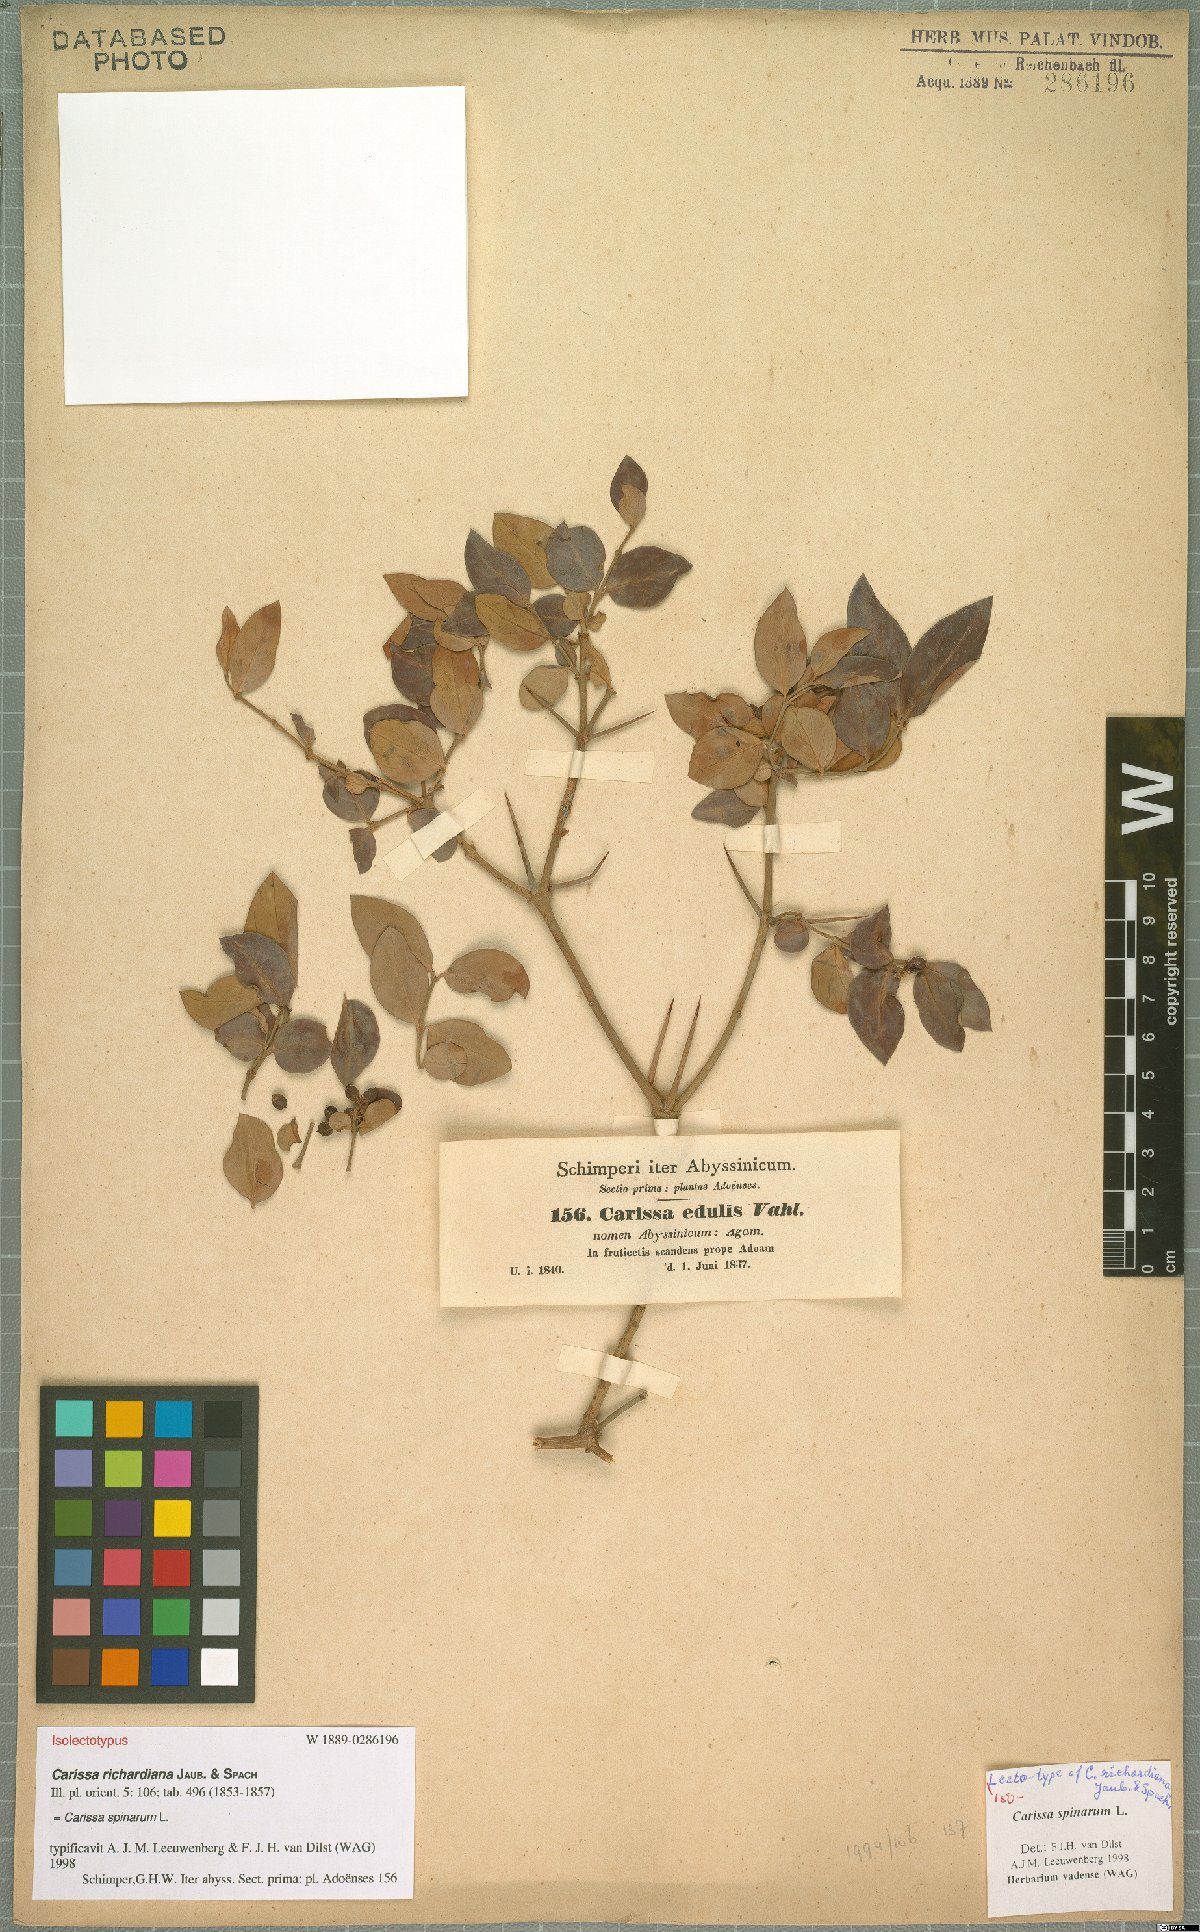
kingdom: Plantae
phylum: Tracheophyta
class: Magnoliopsida
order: Gentianales
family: Apocynaceae
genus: Carissa
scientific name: Carissa spinarum
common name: Egyptian carissa
